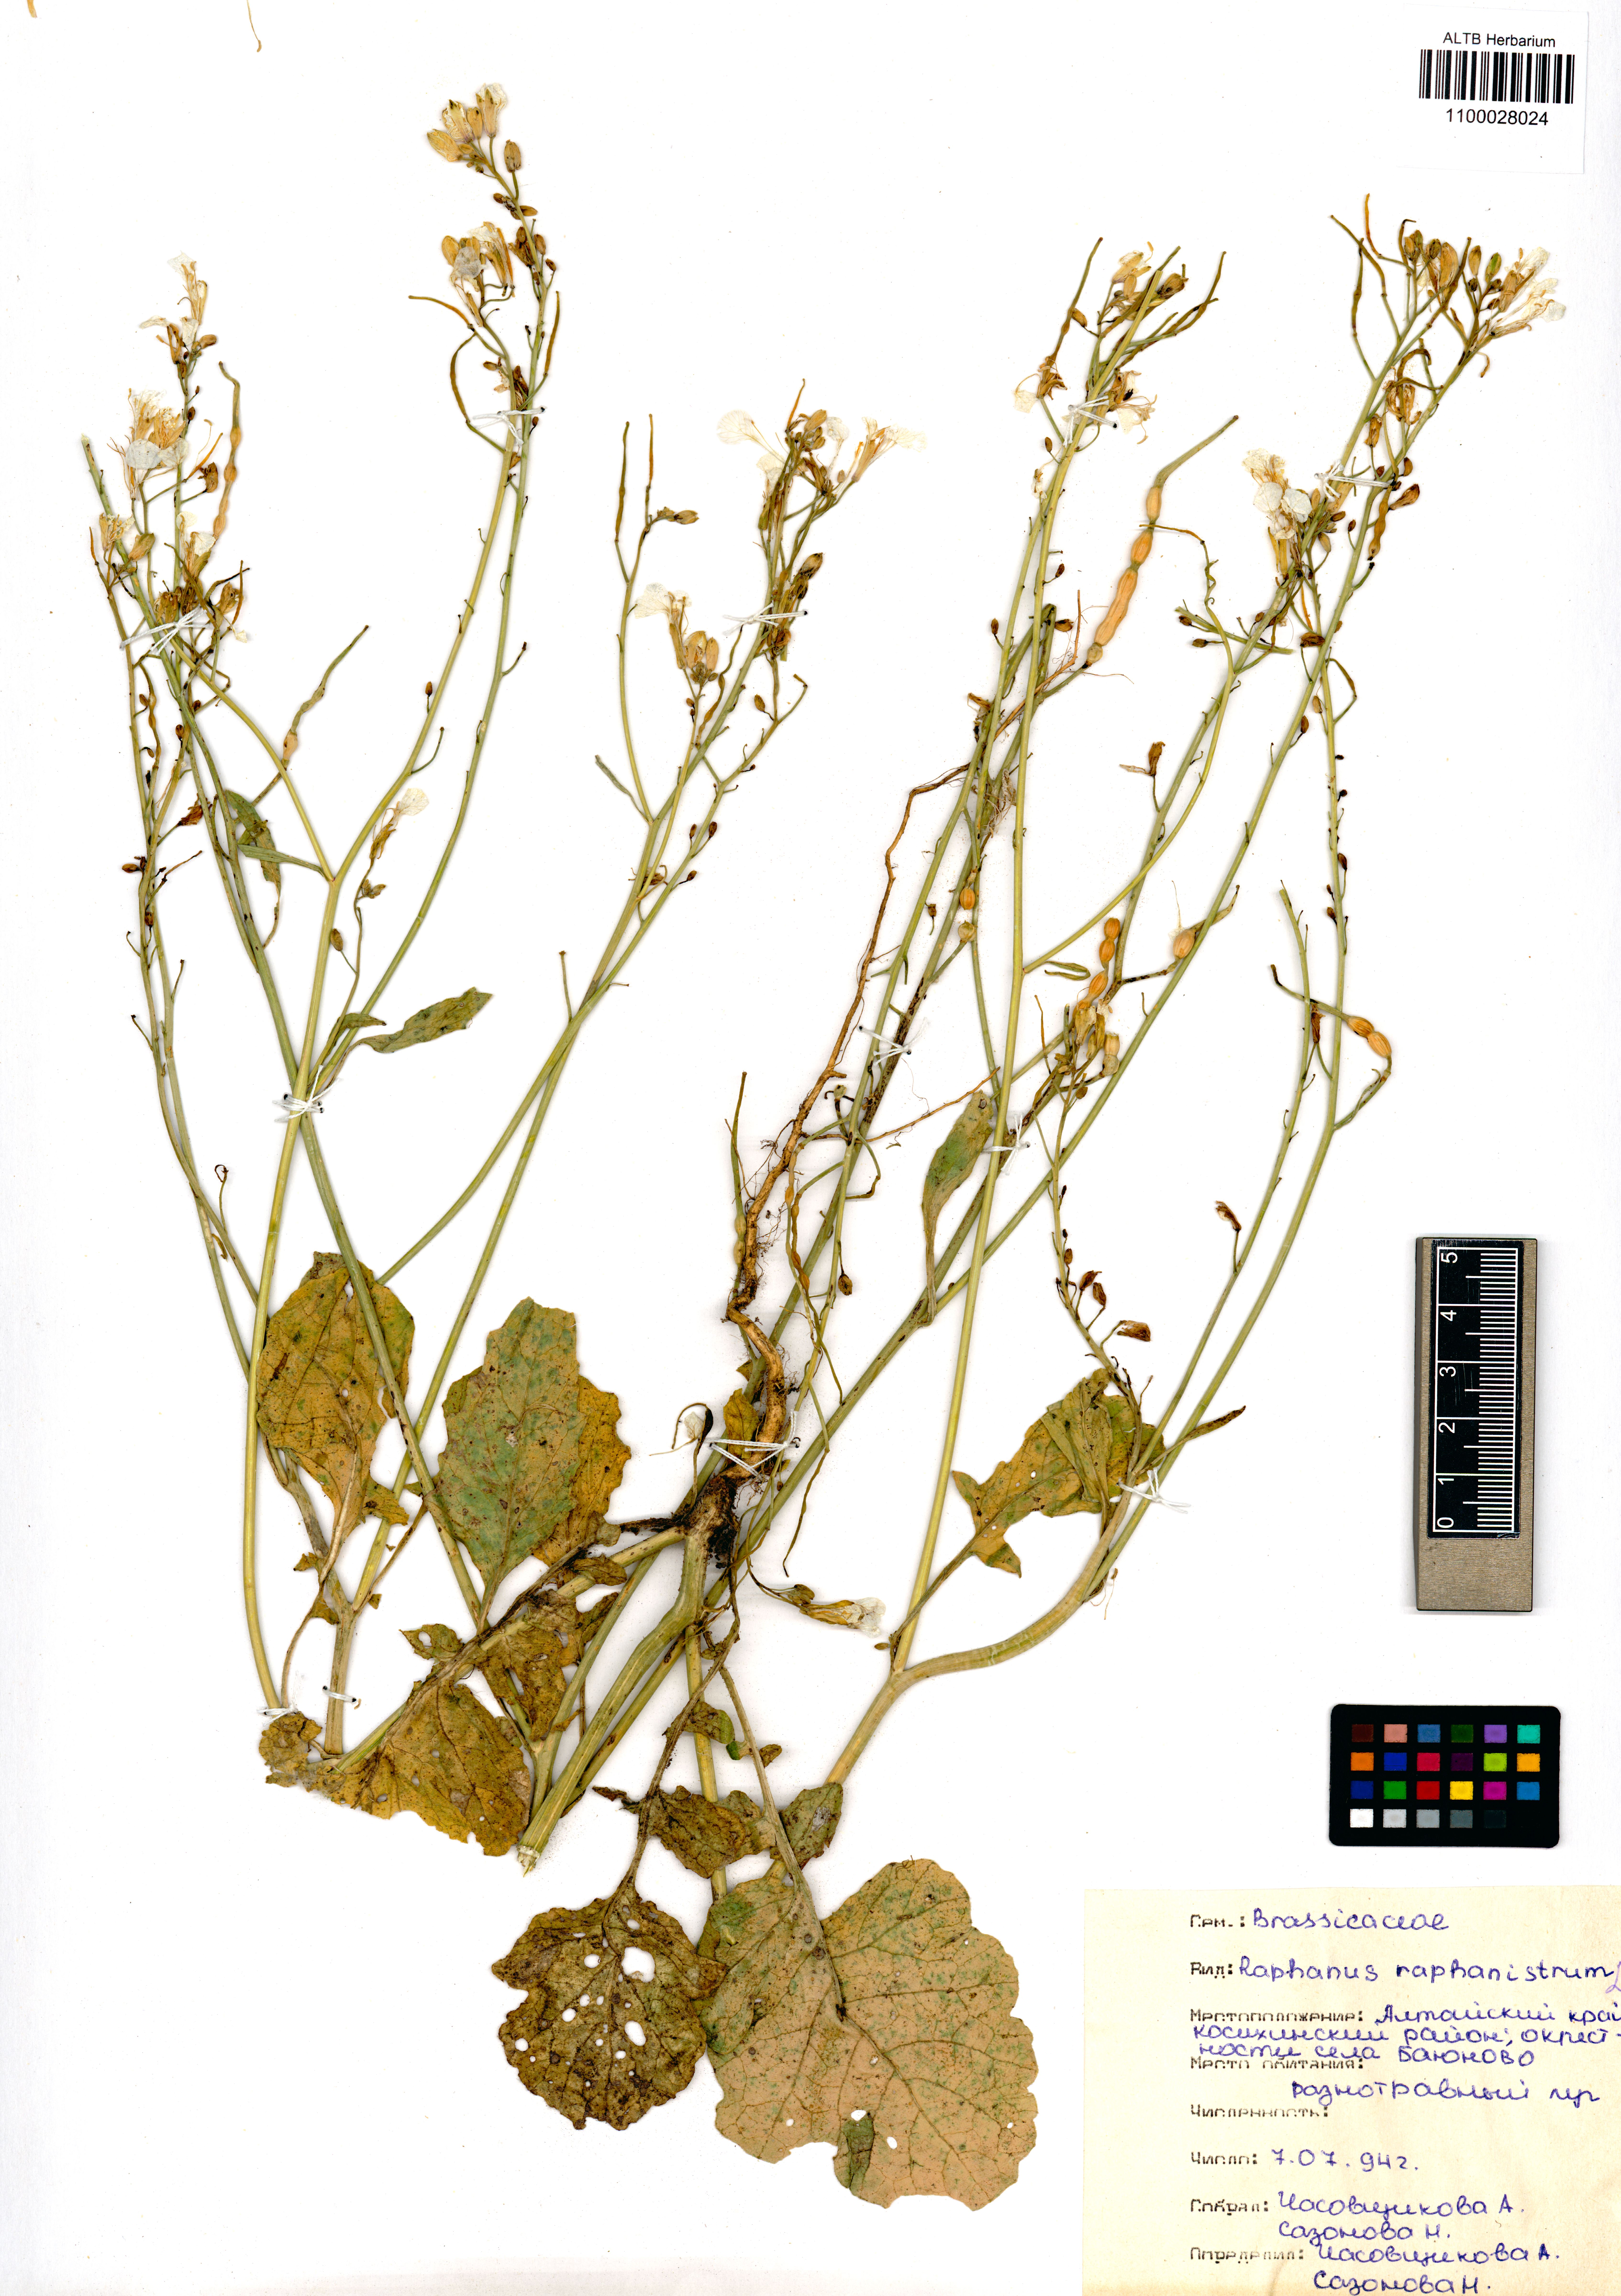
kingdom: Plantae
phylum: Tracheophyta
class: Magnoliopsida
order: Brassicales
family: Brassicaceae
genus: Raphanus
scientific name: Raphanus raphanistrum
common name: Wild radish
